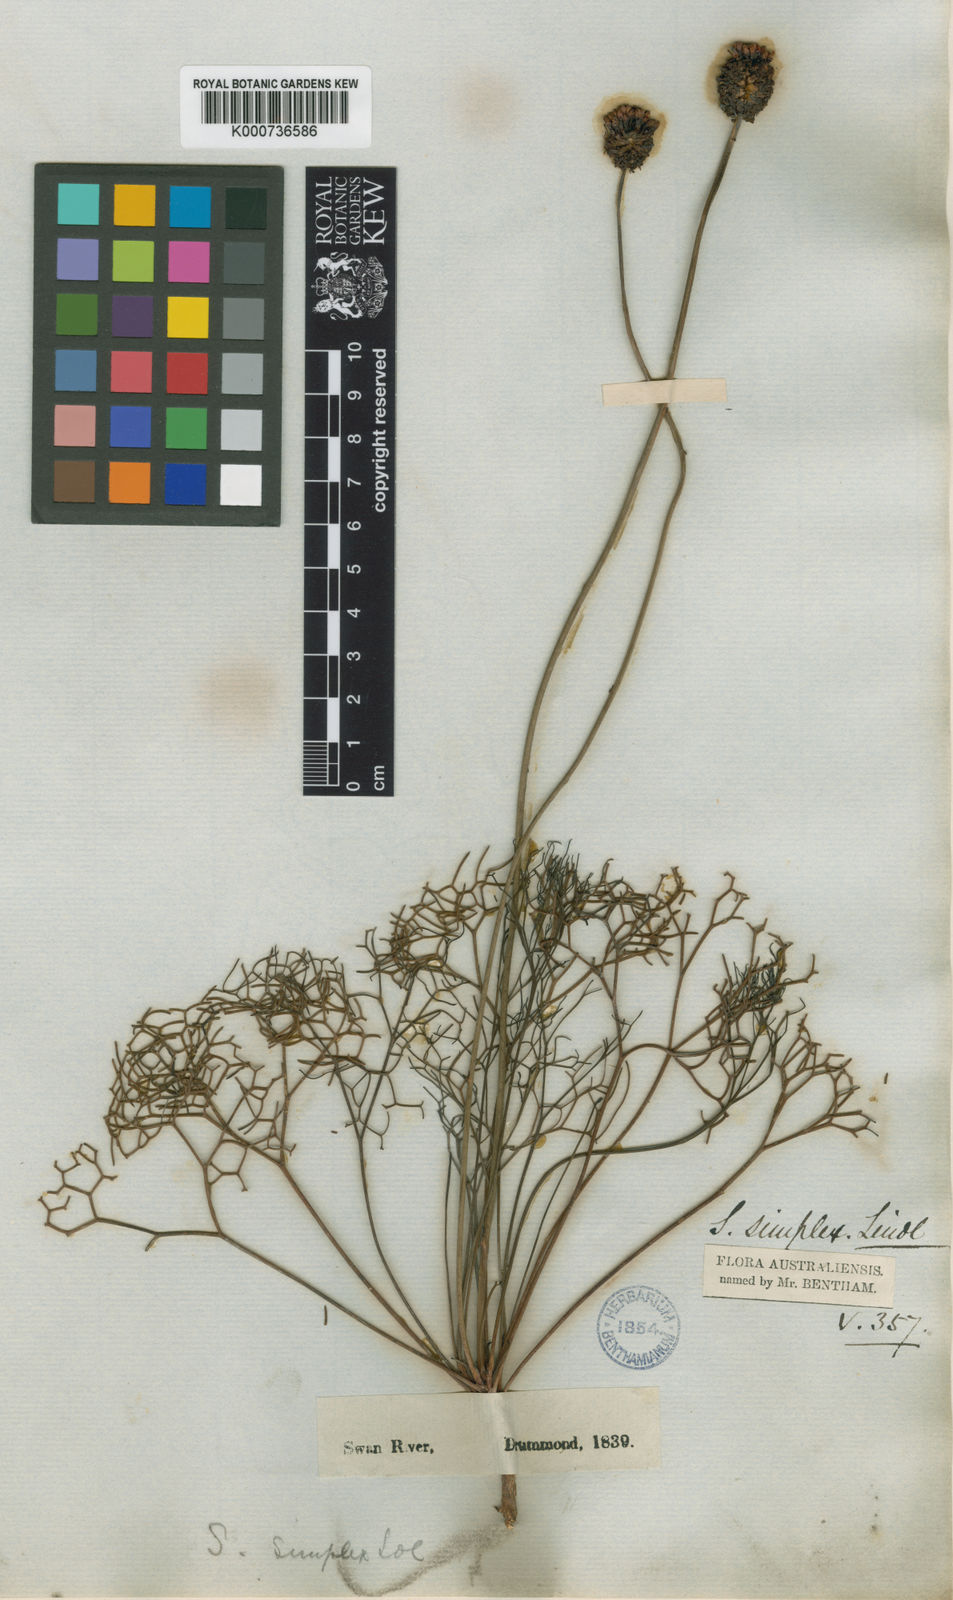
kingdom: Plantae
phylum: Tracheophyta
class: Magnoliopsida
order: Proteales
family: Proteaceae
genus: Stirlingia
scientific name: Stirlingia simplex
